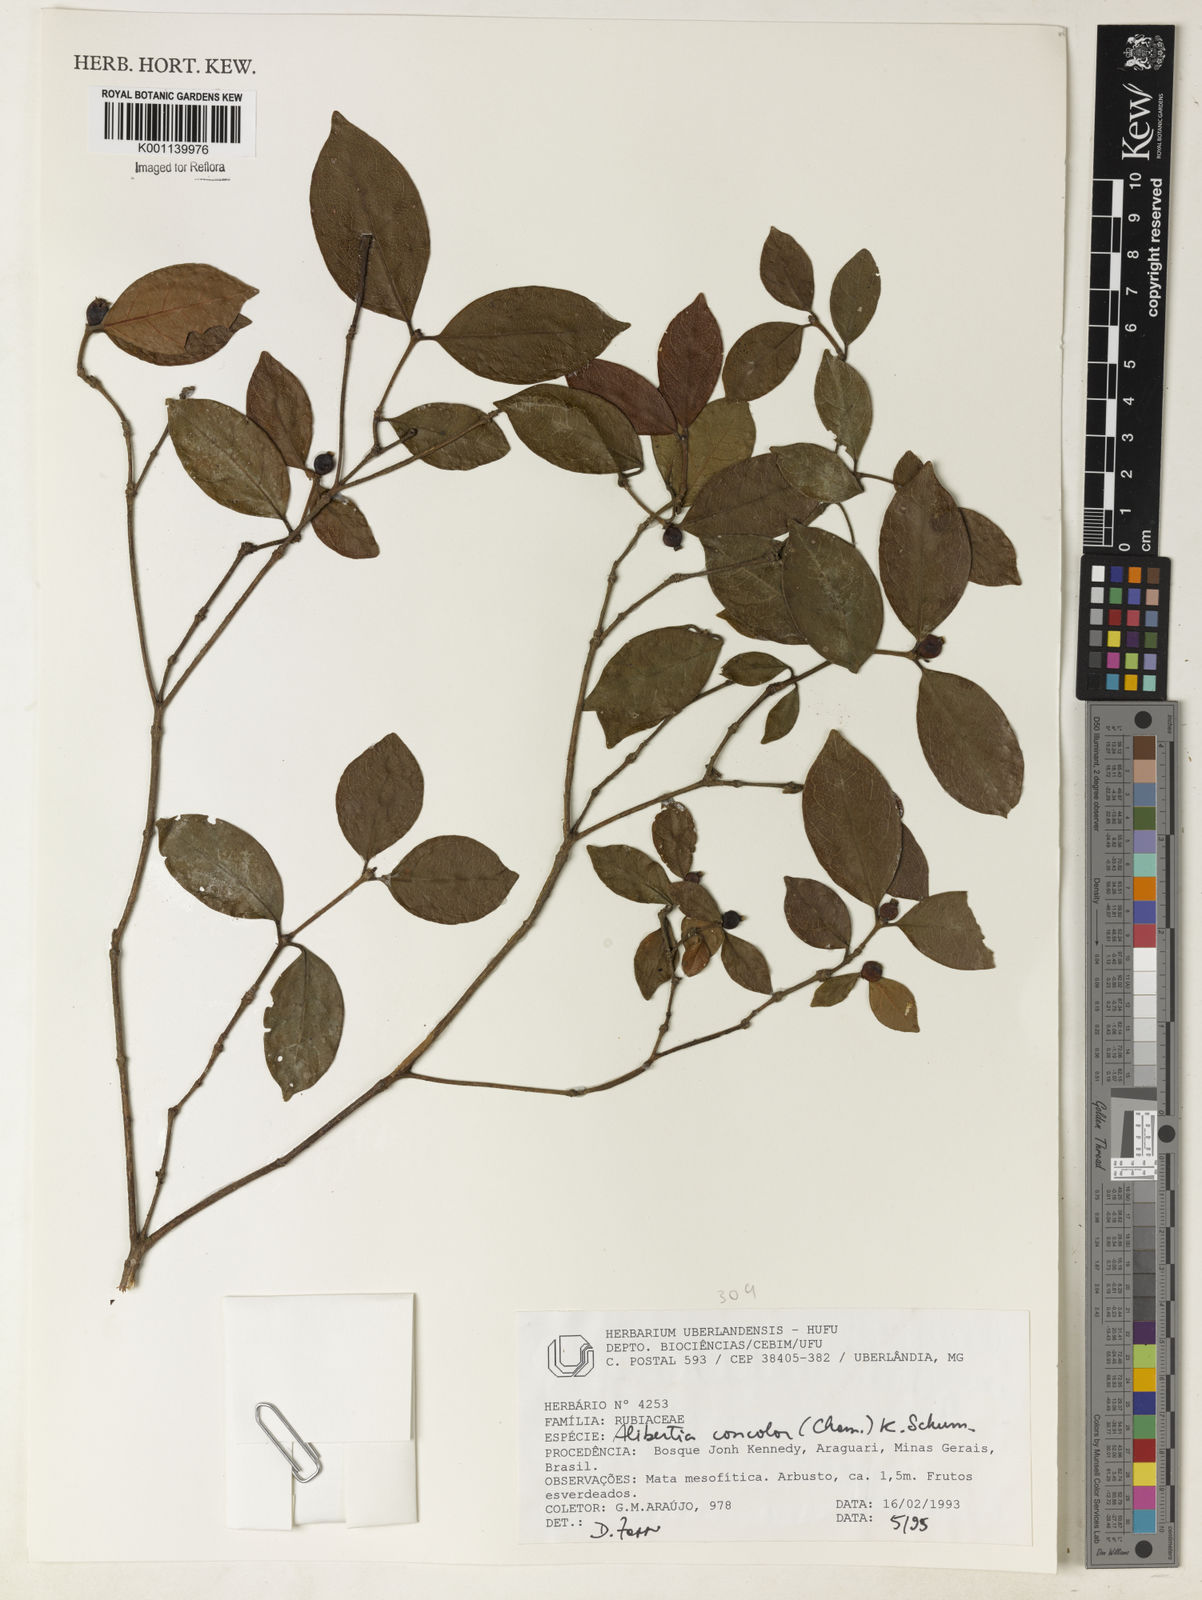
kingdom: Plantae
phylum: Tracheophyta
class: Magnoliopsida
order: Gentianales
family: Rubiaceae
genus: Cordiera
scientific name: Cordiera concolor
